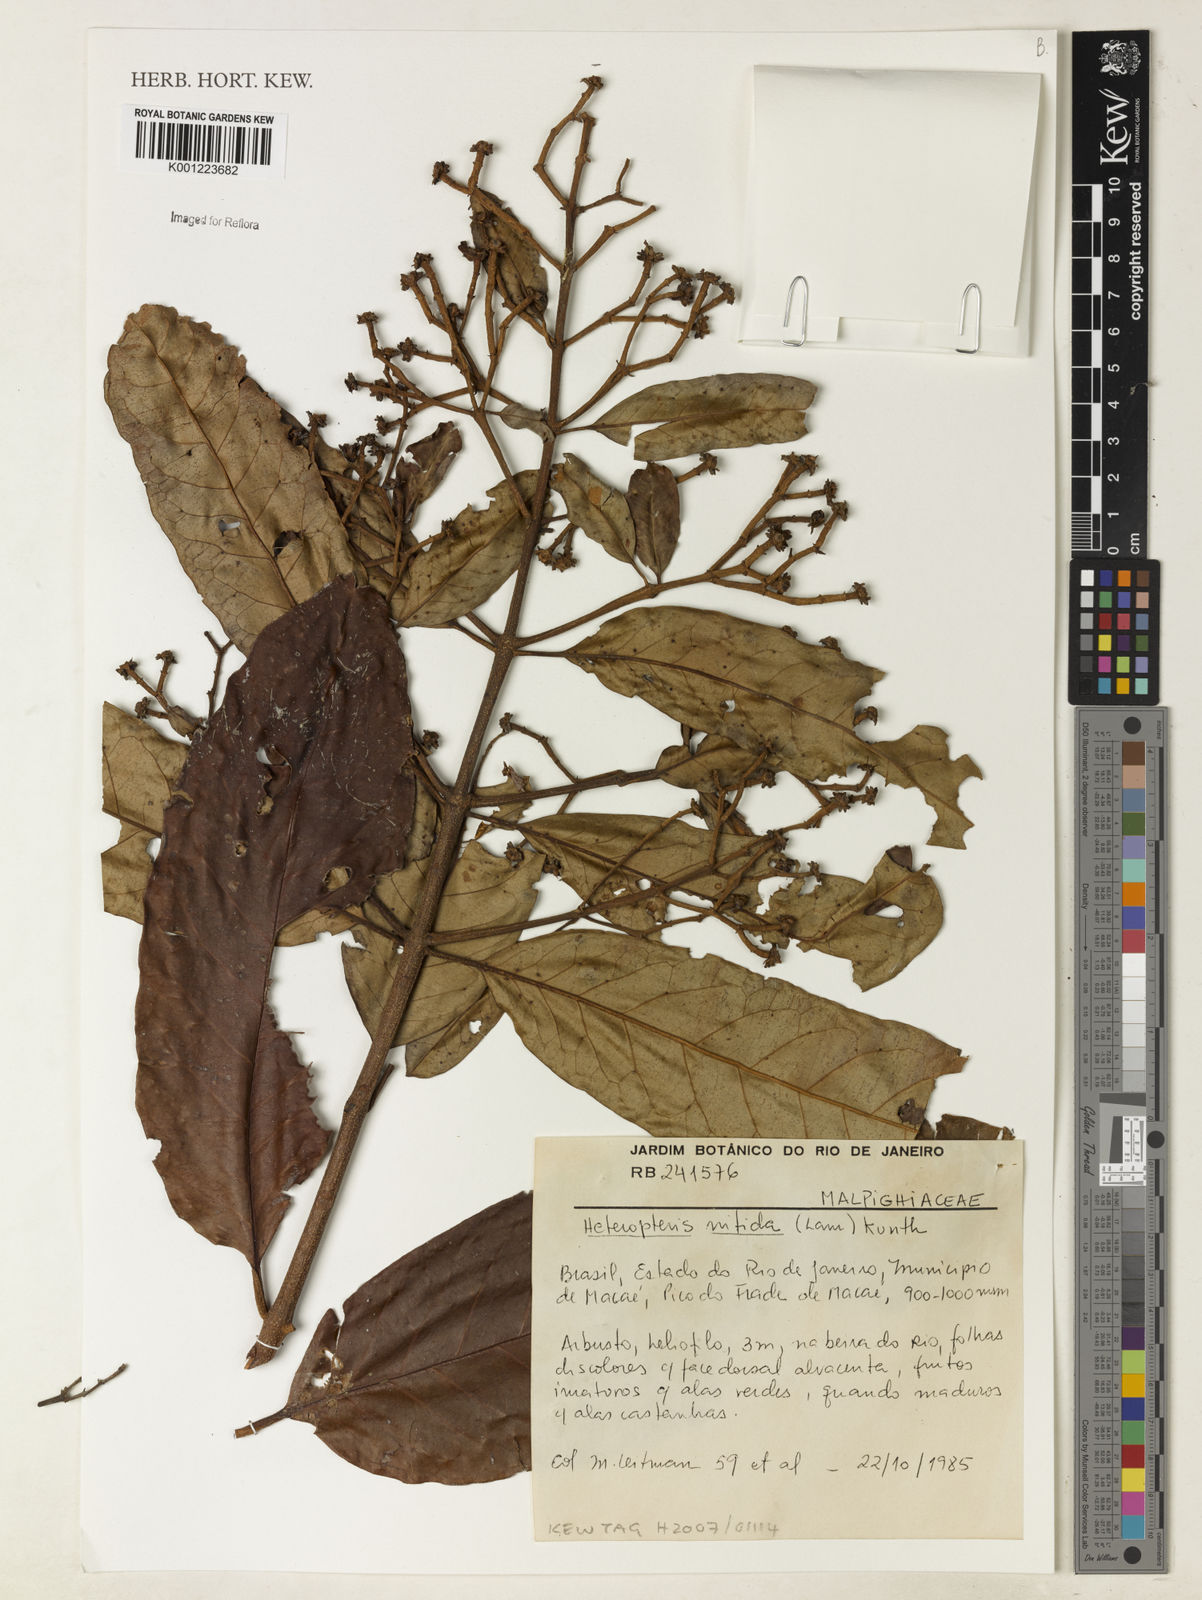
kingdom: Plantae
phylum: Tracheophyta
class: Magnoliopsida
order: Malpighiales
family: Malpighiaceae
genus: Heteropterys
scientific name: Heteropterys nitida
